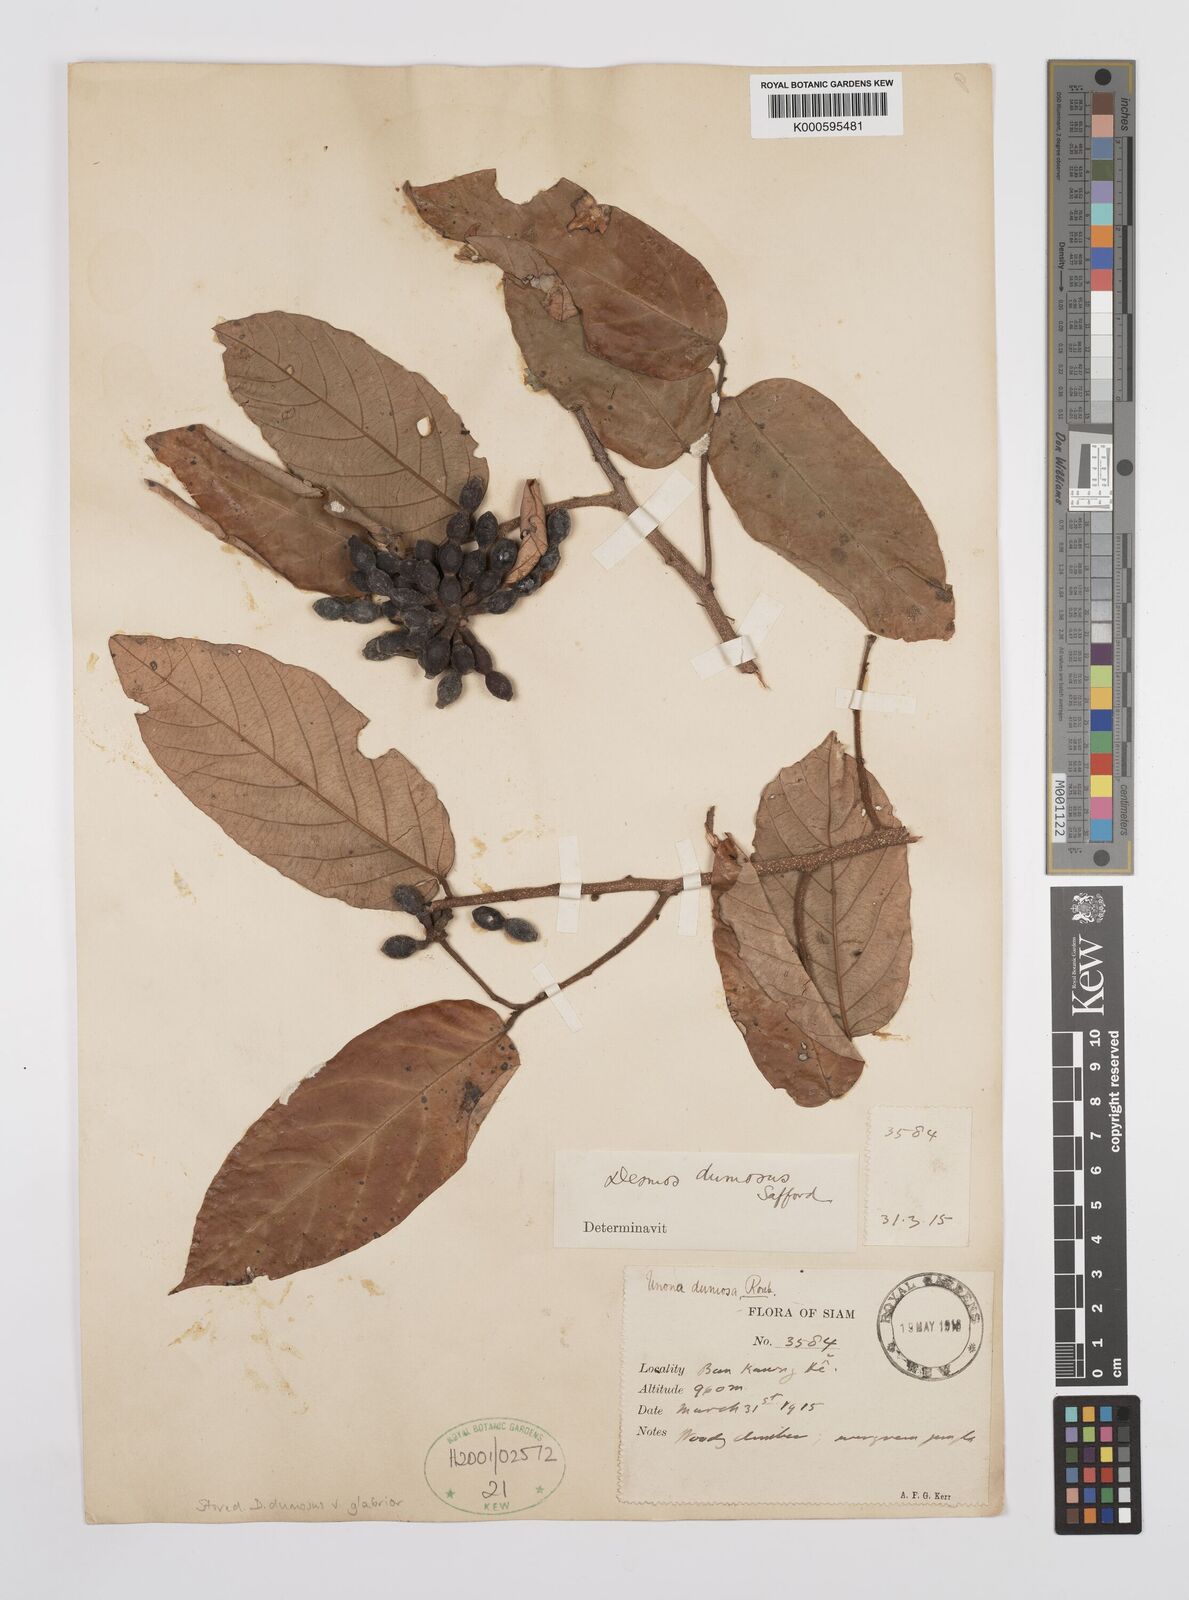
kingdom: Plantae
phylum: Tracheophyta
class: Magnoliopsida
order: Magnoliales
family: Annonaceae
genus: Desmos
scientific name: Desmos dumosus
